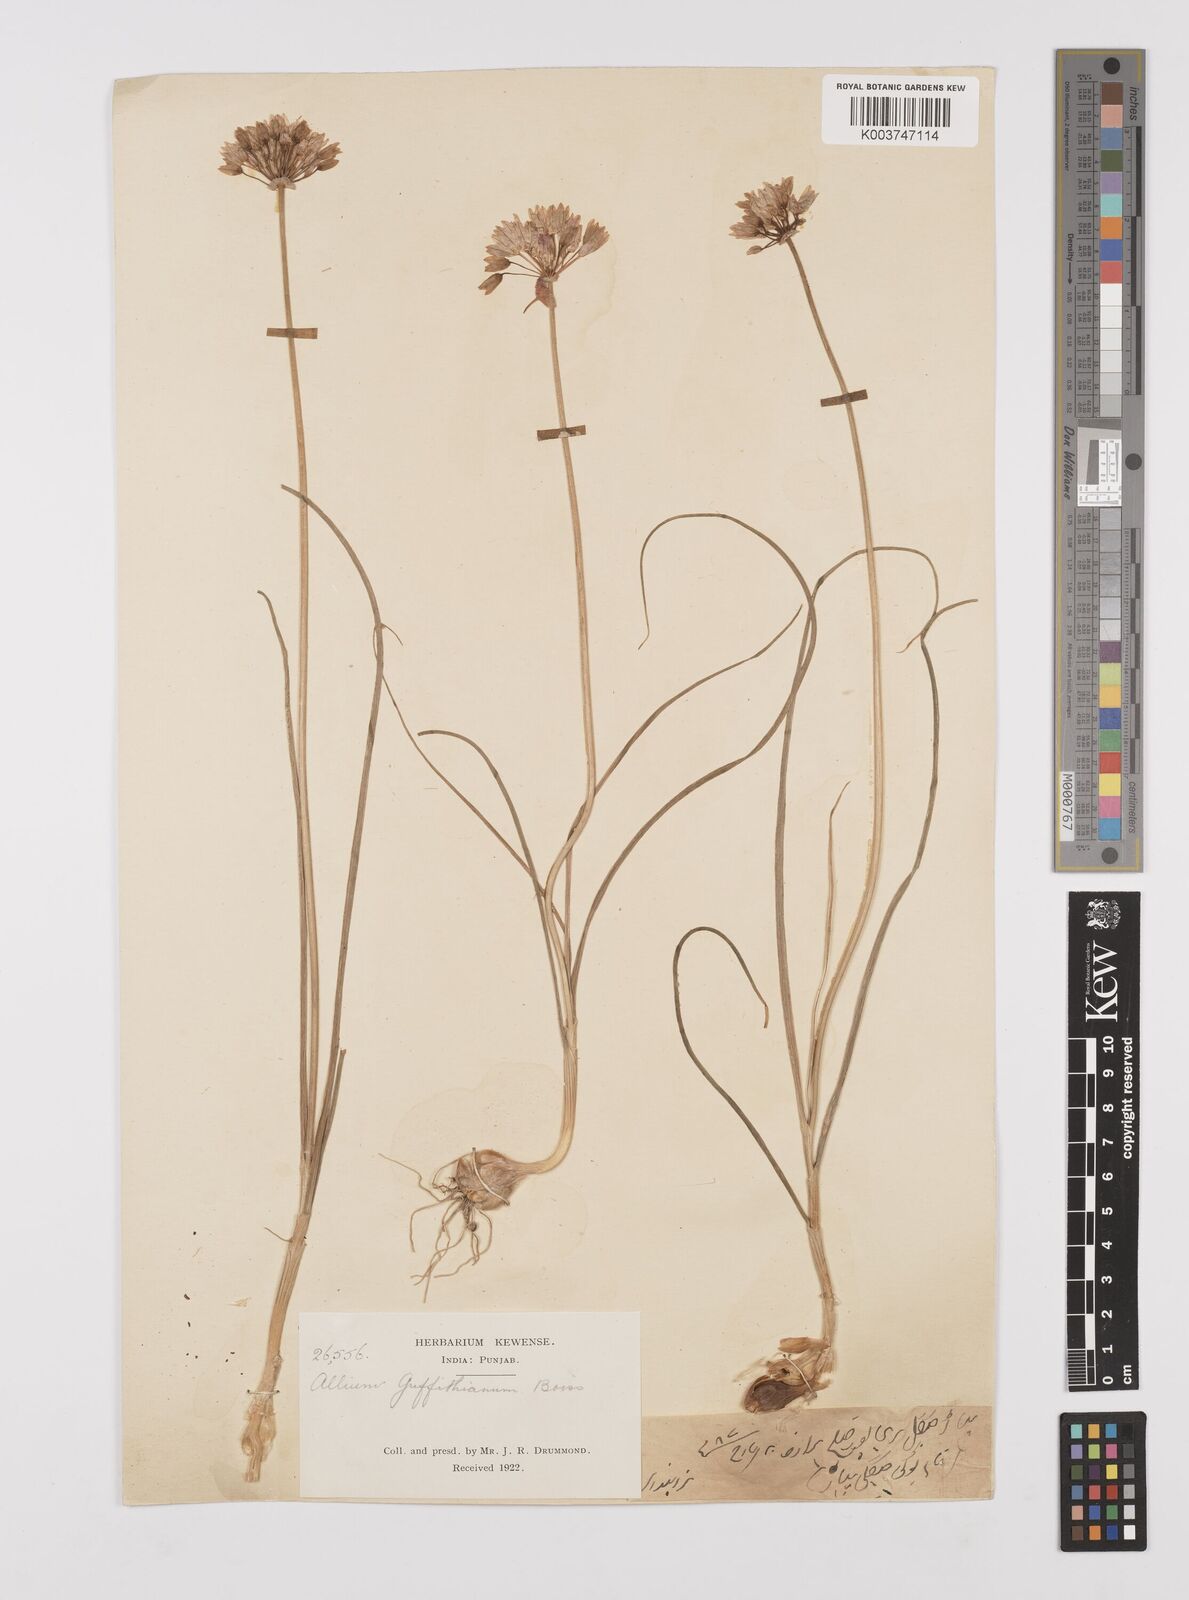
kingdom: Plantae
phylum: Tracheophyta
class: Liliopsida
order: Asparagales
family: Amaryllidaceae
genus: Allium
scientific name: Allium griffithianum
